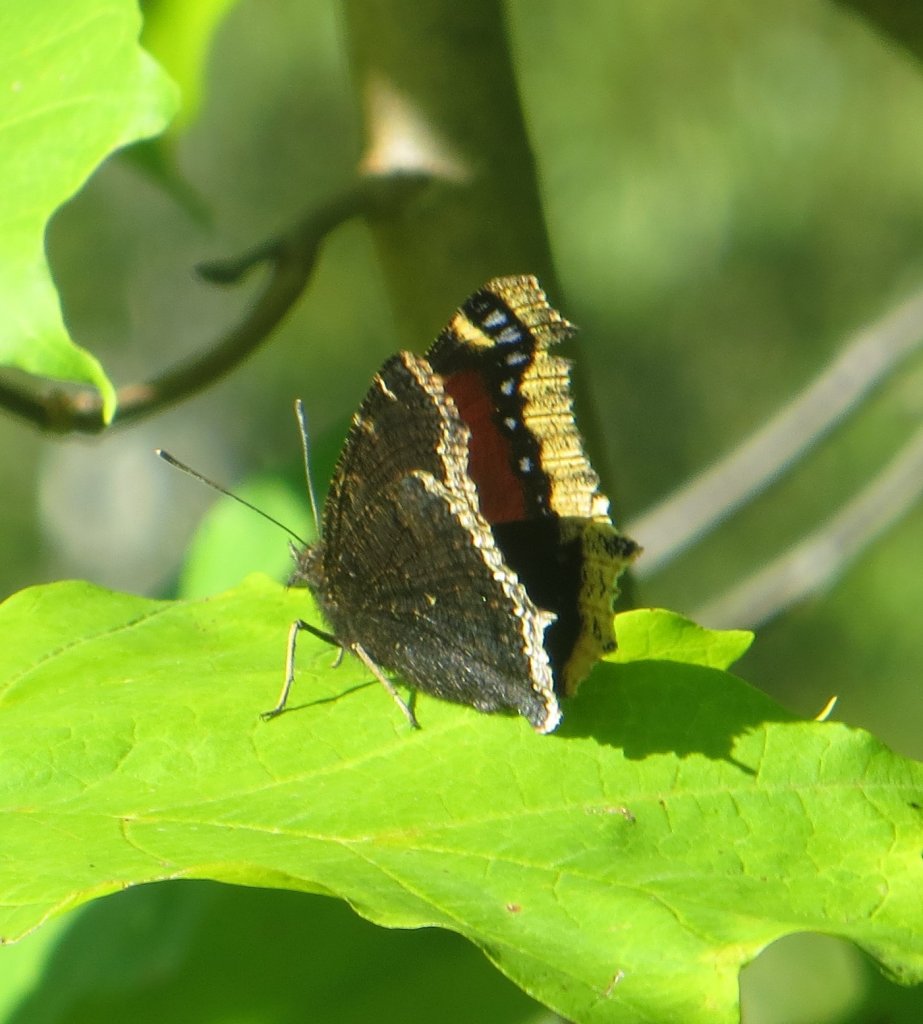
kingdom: Animalia
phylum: Arthropoda
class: Insecta
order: Lepidoptera
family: Nymphalidae
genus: Nymphalis
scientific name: Nymphalis antiopa
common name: Mourning Cloak
